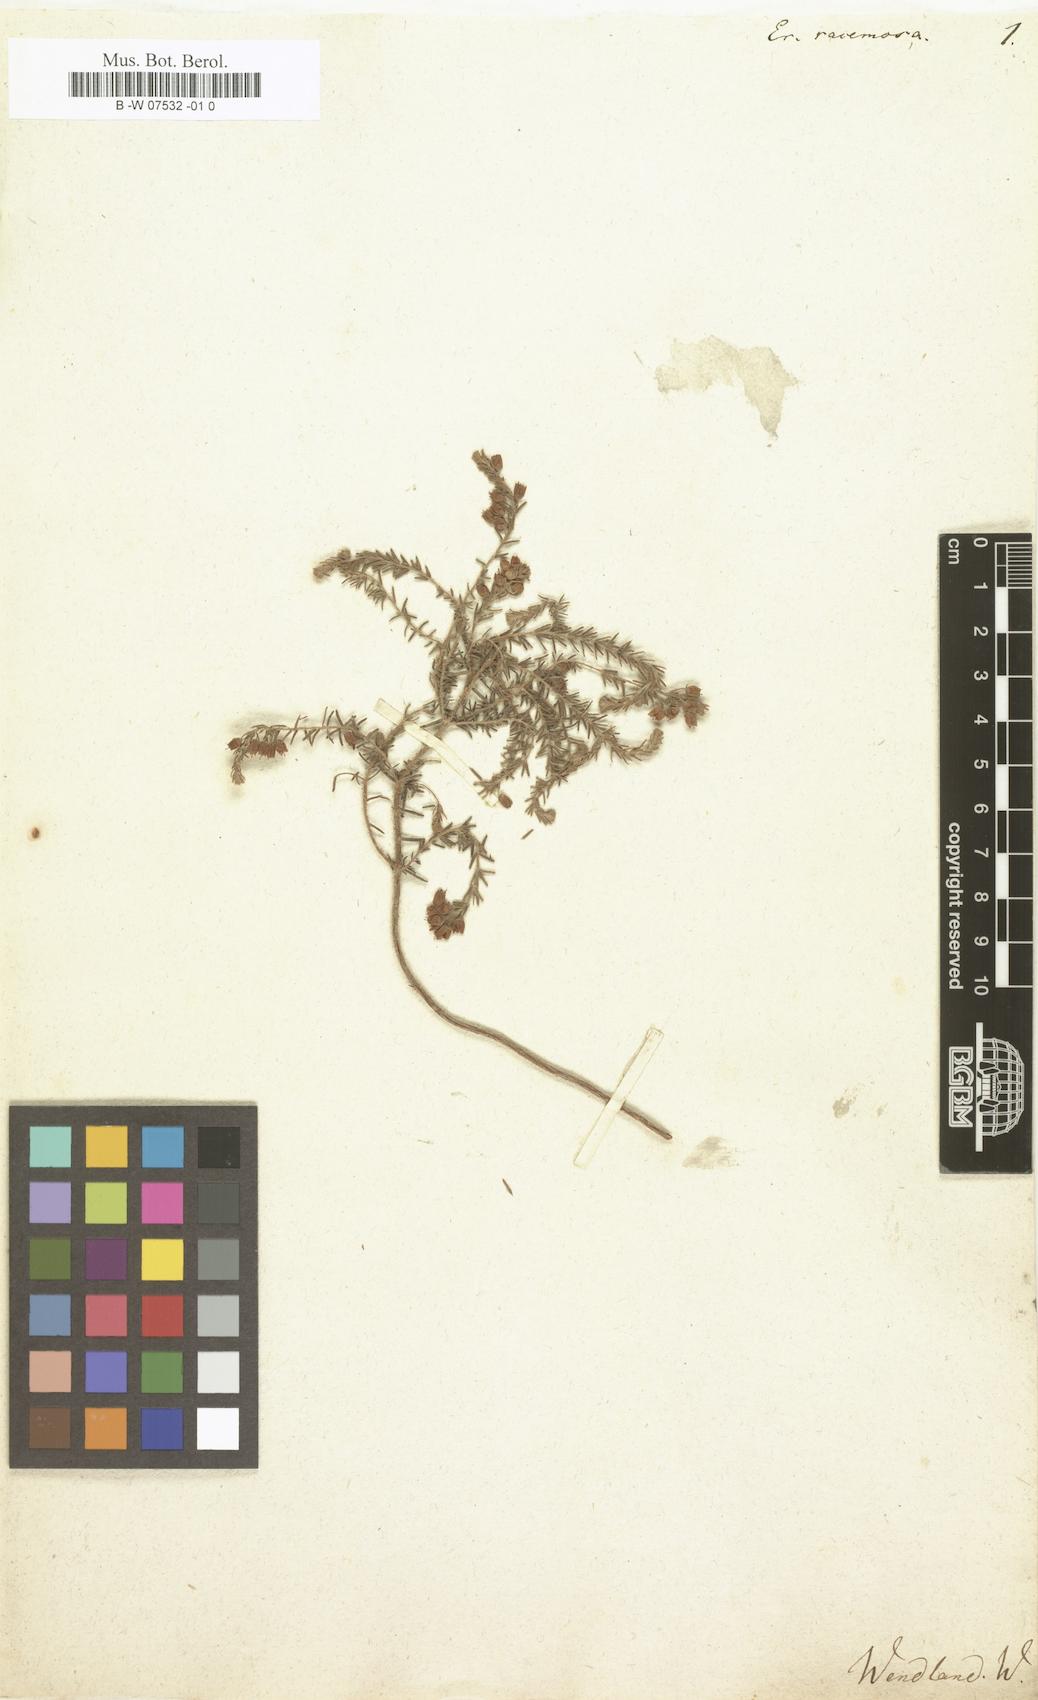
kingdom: Plantae
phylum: Tracheophyta
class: Magnoliopsida
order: Ericales
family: Ericaceae
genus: Erica
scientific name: Erica racemosa
